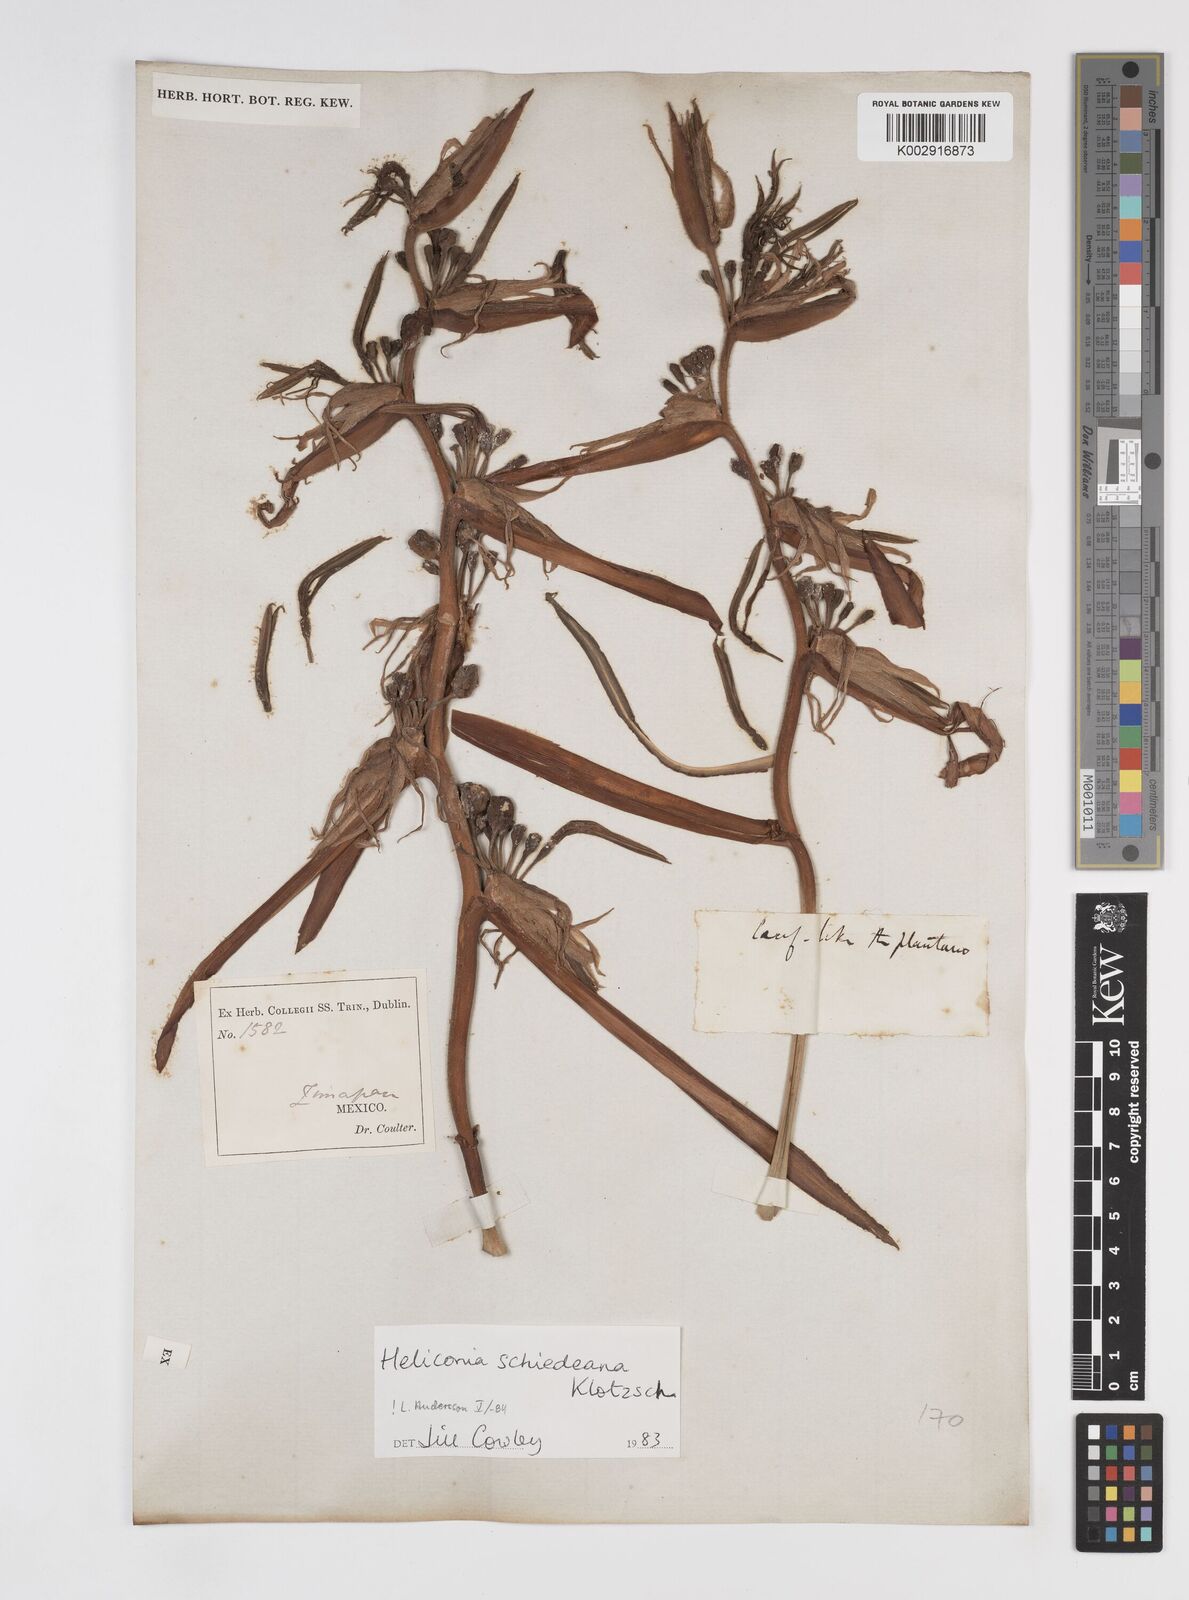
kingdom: Plantae
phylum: Tracheophyta
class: Liliopsida
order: Zingiberales
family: Heliconiaceae
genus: Heliconia
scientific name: Heliconia schiedeana
